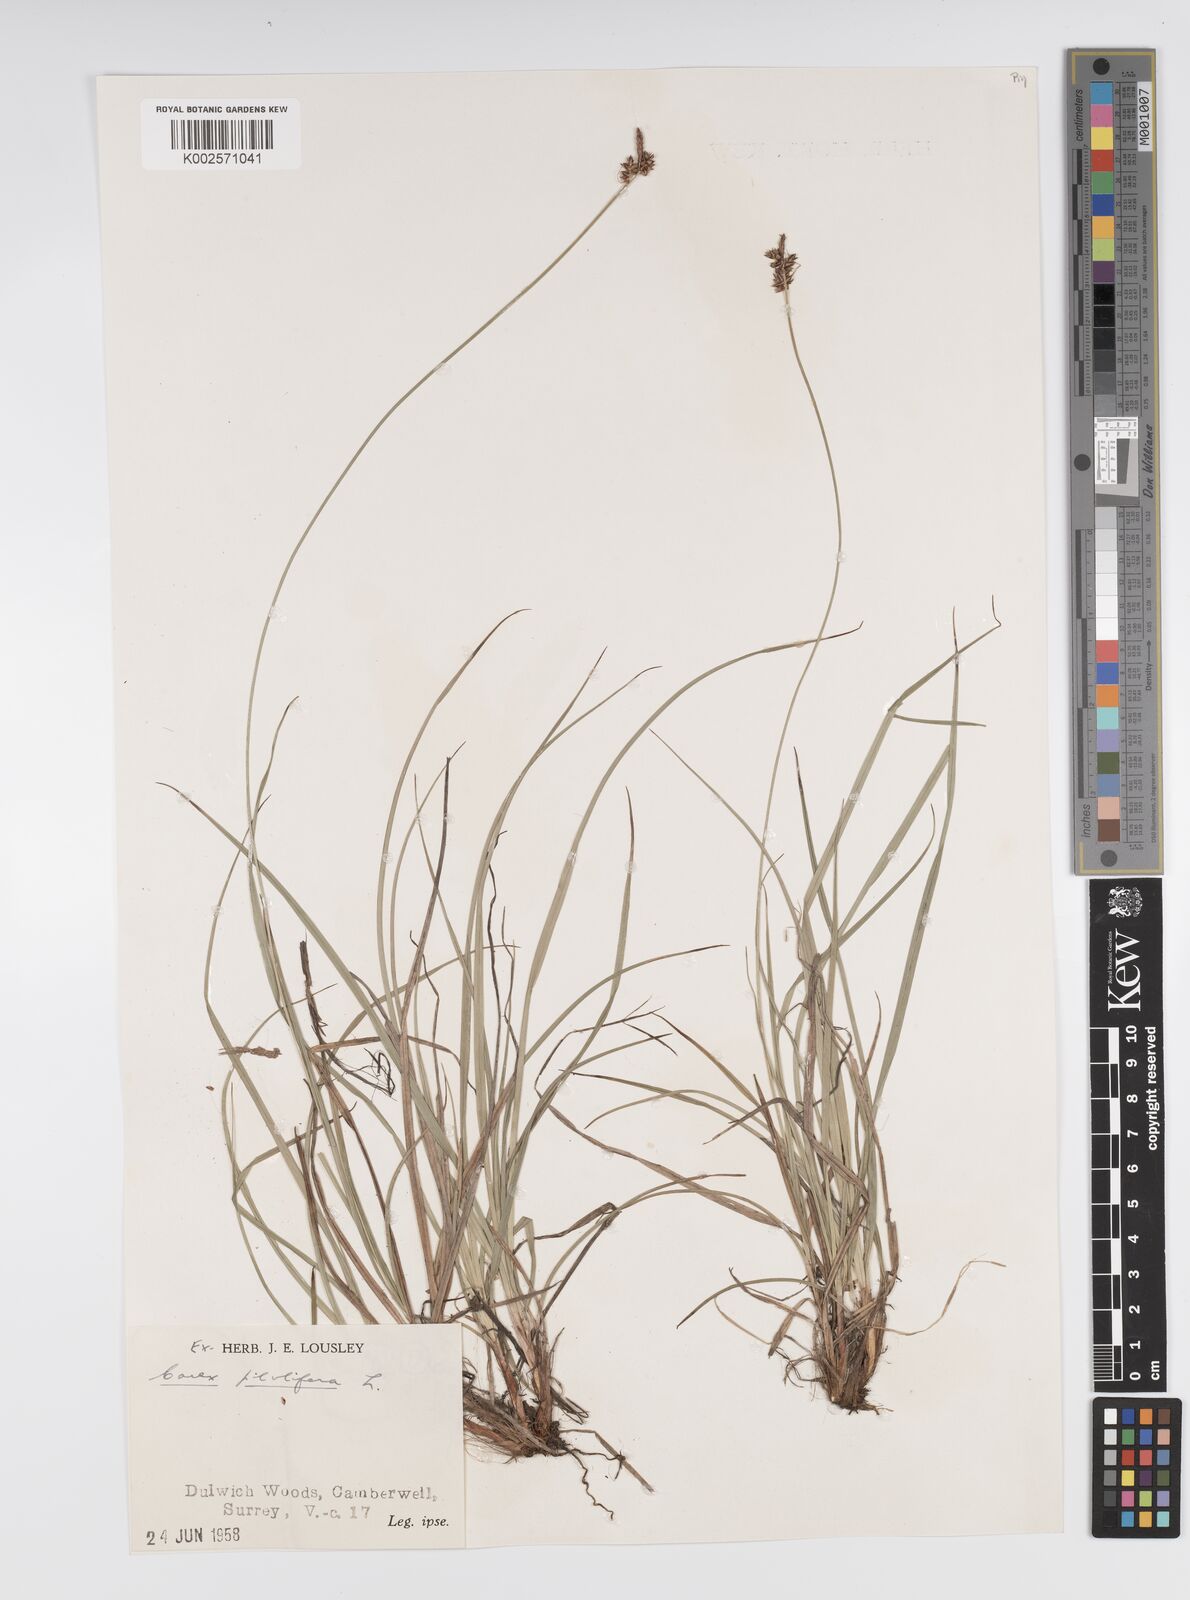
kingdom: Plantae
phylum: Tracheophyta
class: Liliopsida
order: Poales
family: Cyperaceae
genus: Carex
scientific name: Carex pilulifera
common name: Pill sedge
